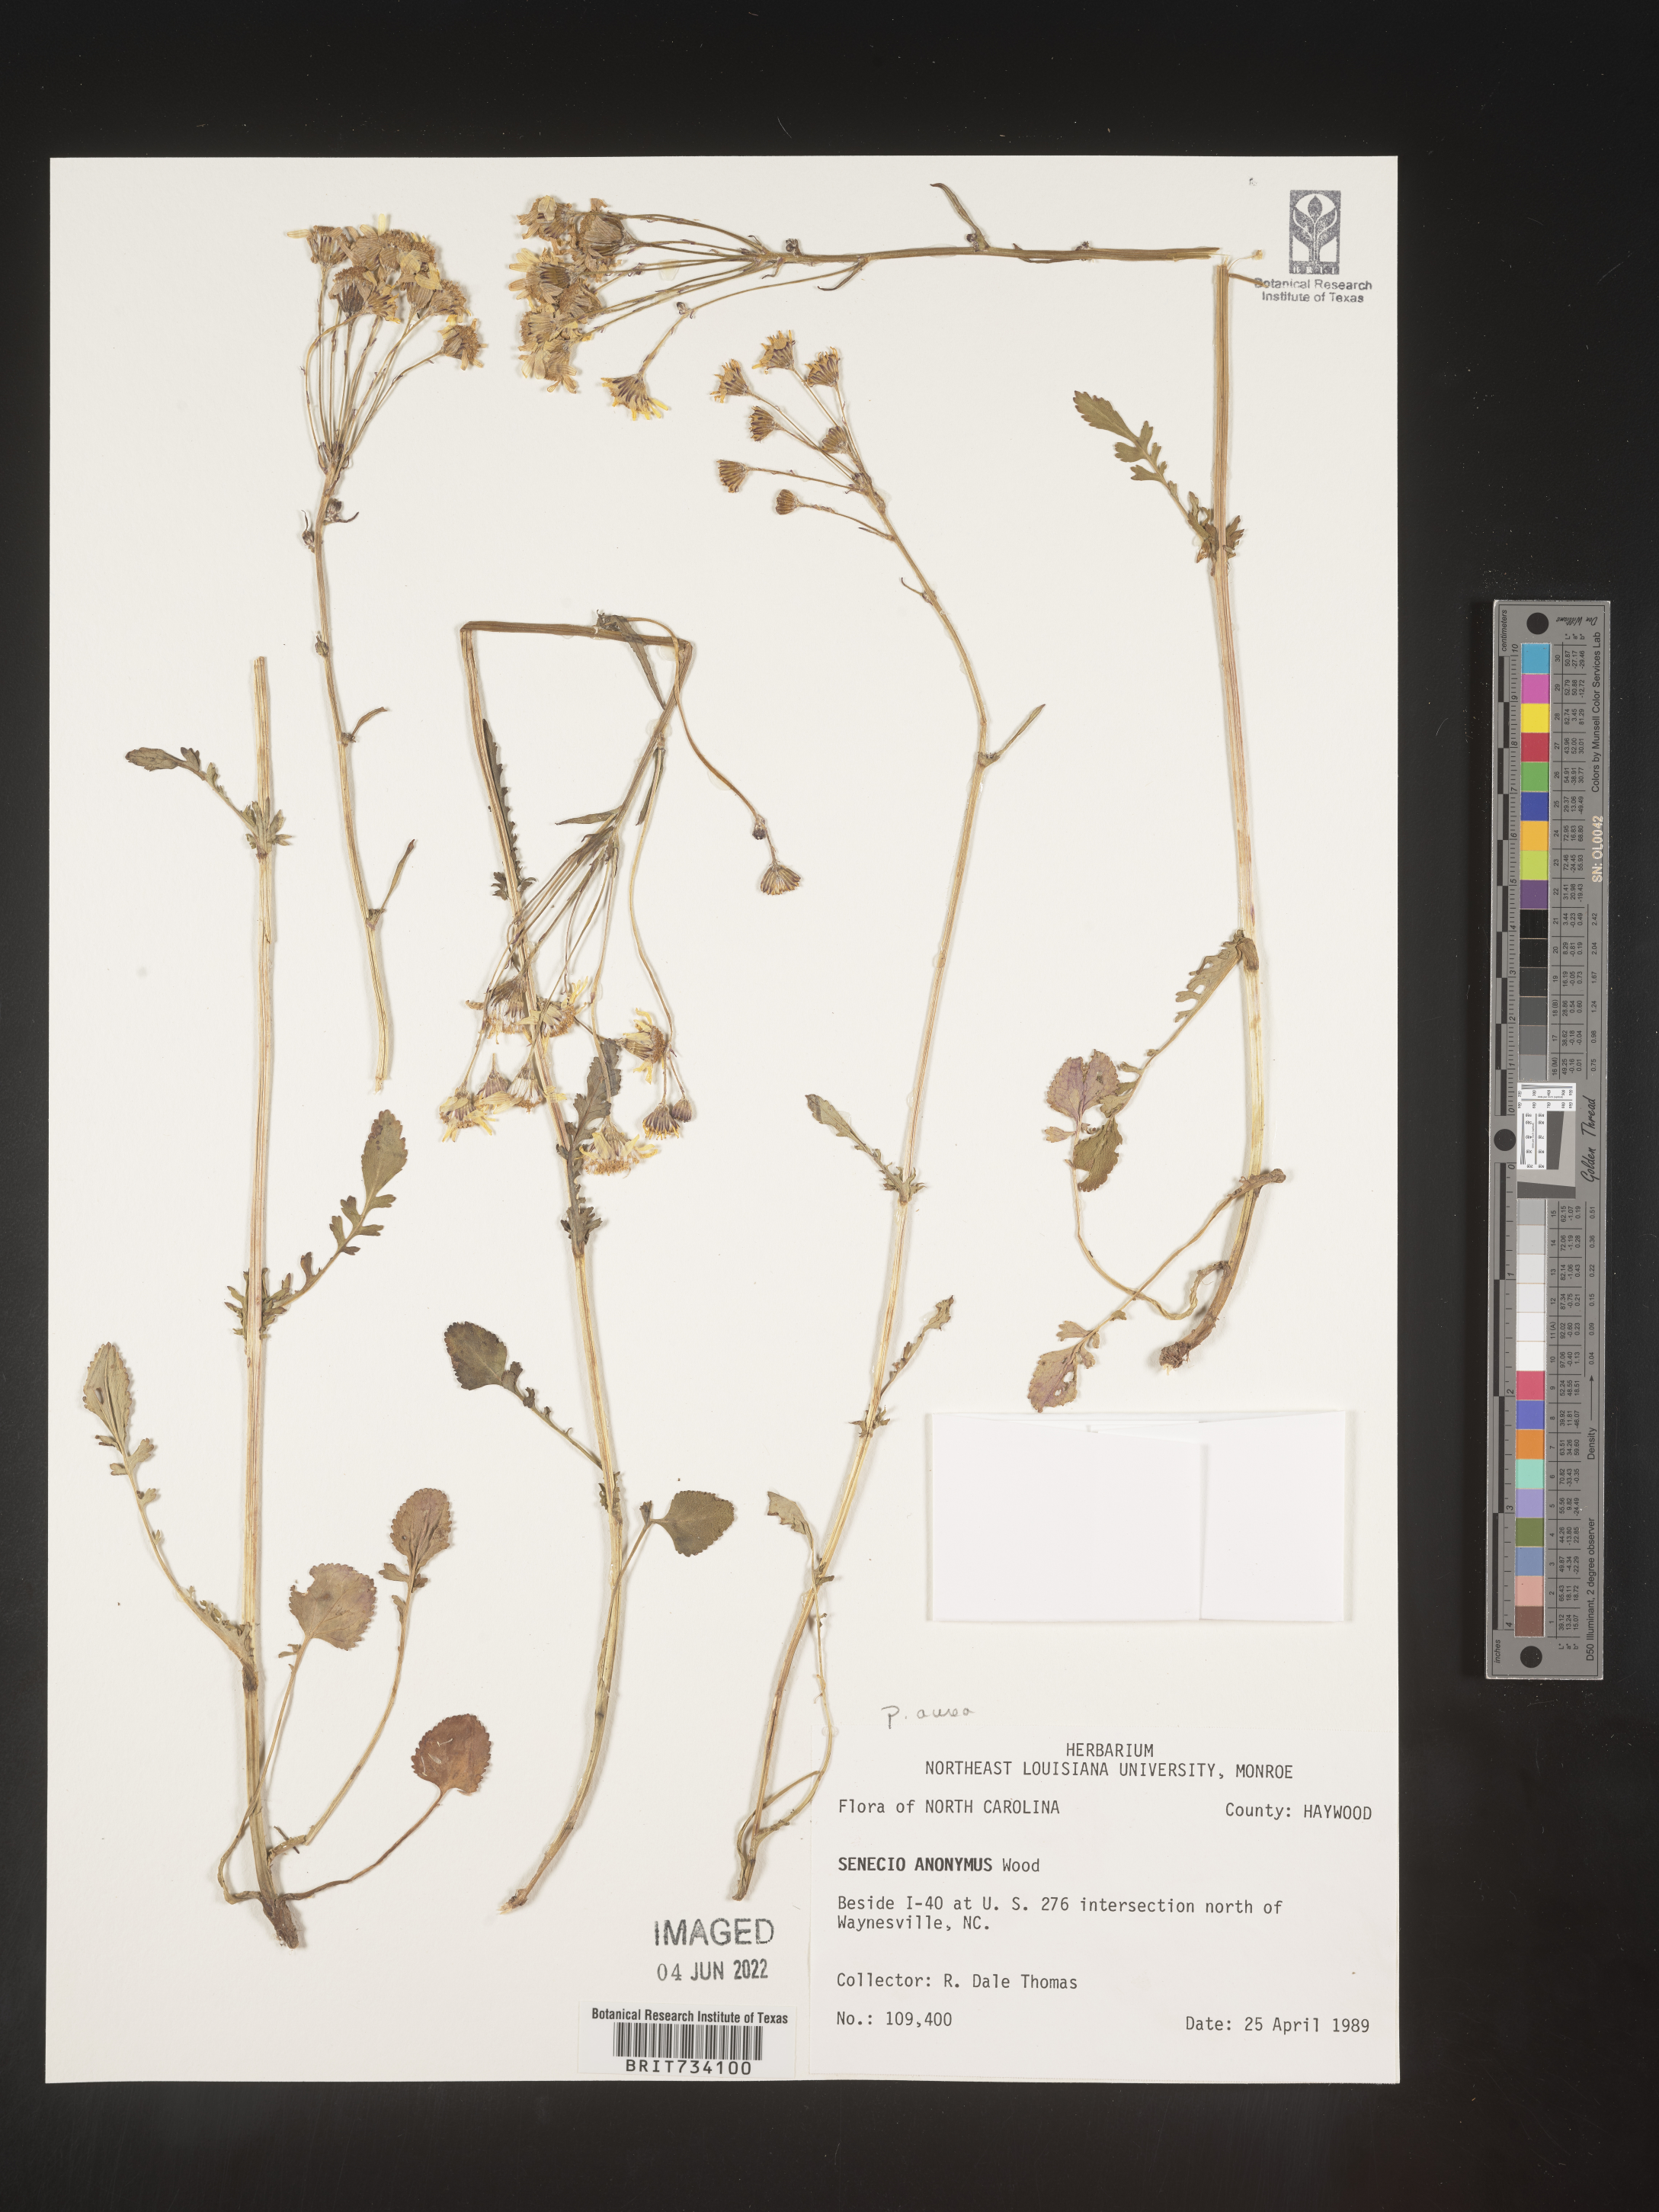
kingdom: Plantae
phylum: Tracheophyta
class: Magnoliopsida
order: Asterales
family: Asteraceae
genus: Packera
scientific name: Packera aurea
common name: Golden groundsel
